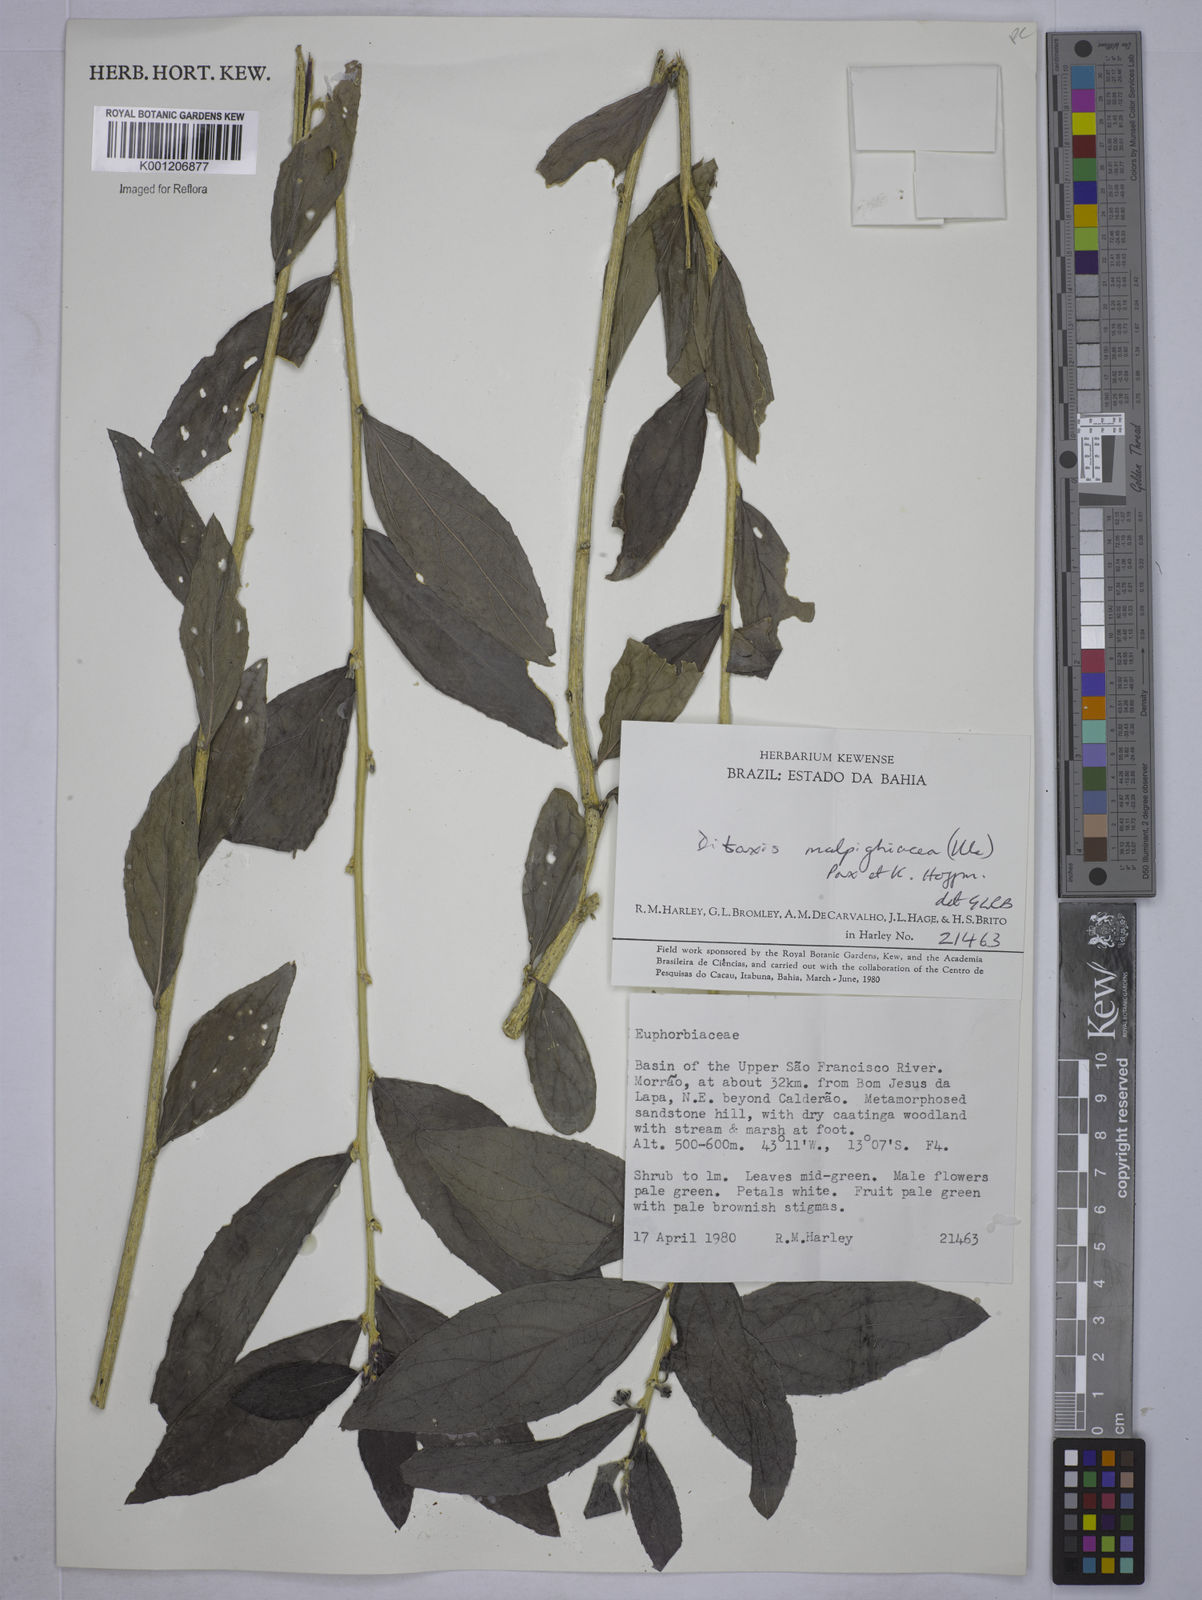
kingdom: Plantae
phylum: Tracheophyta
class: Magnoliopsida
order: Malpighiales
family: Euphorbiaceae
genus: Ditaxis
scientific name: Ditaxis malpighiacea
